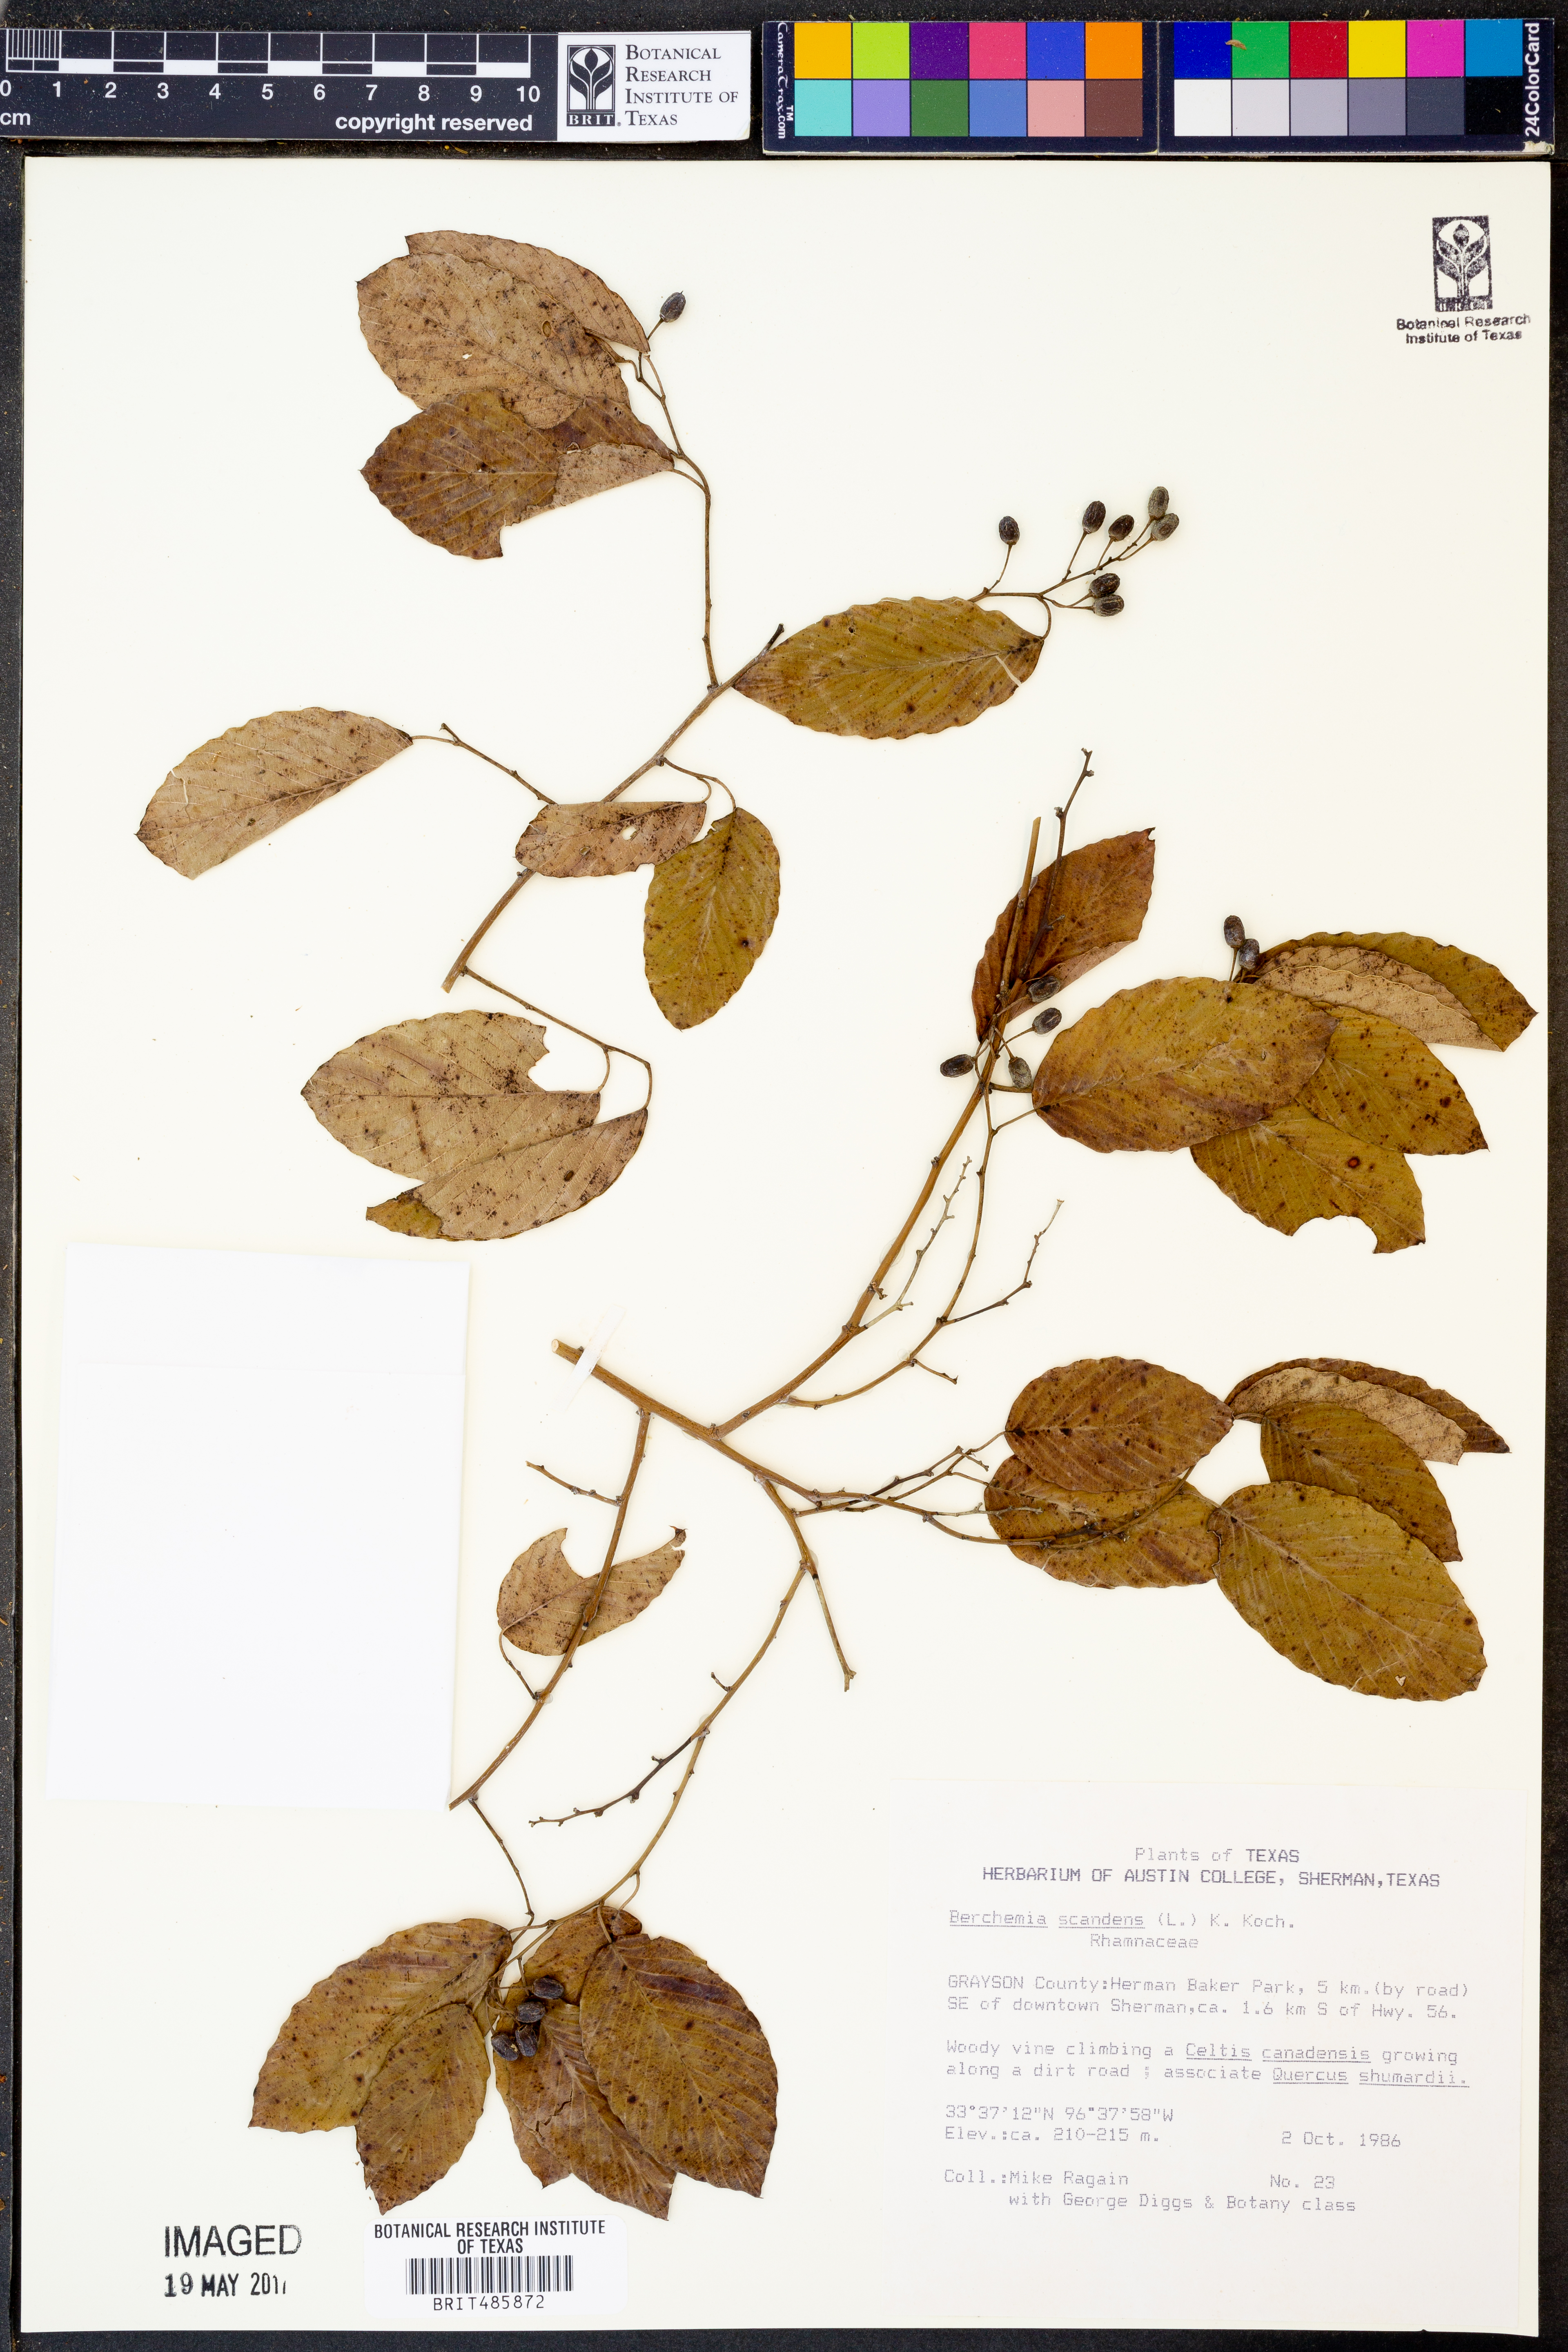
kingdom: Plantae
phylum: Tracheophyta
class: Magnoliopsida
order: Rosales
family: Rhamnaceae
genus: Berchemia
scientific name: Berchemia scandens
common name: Supplejack
